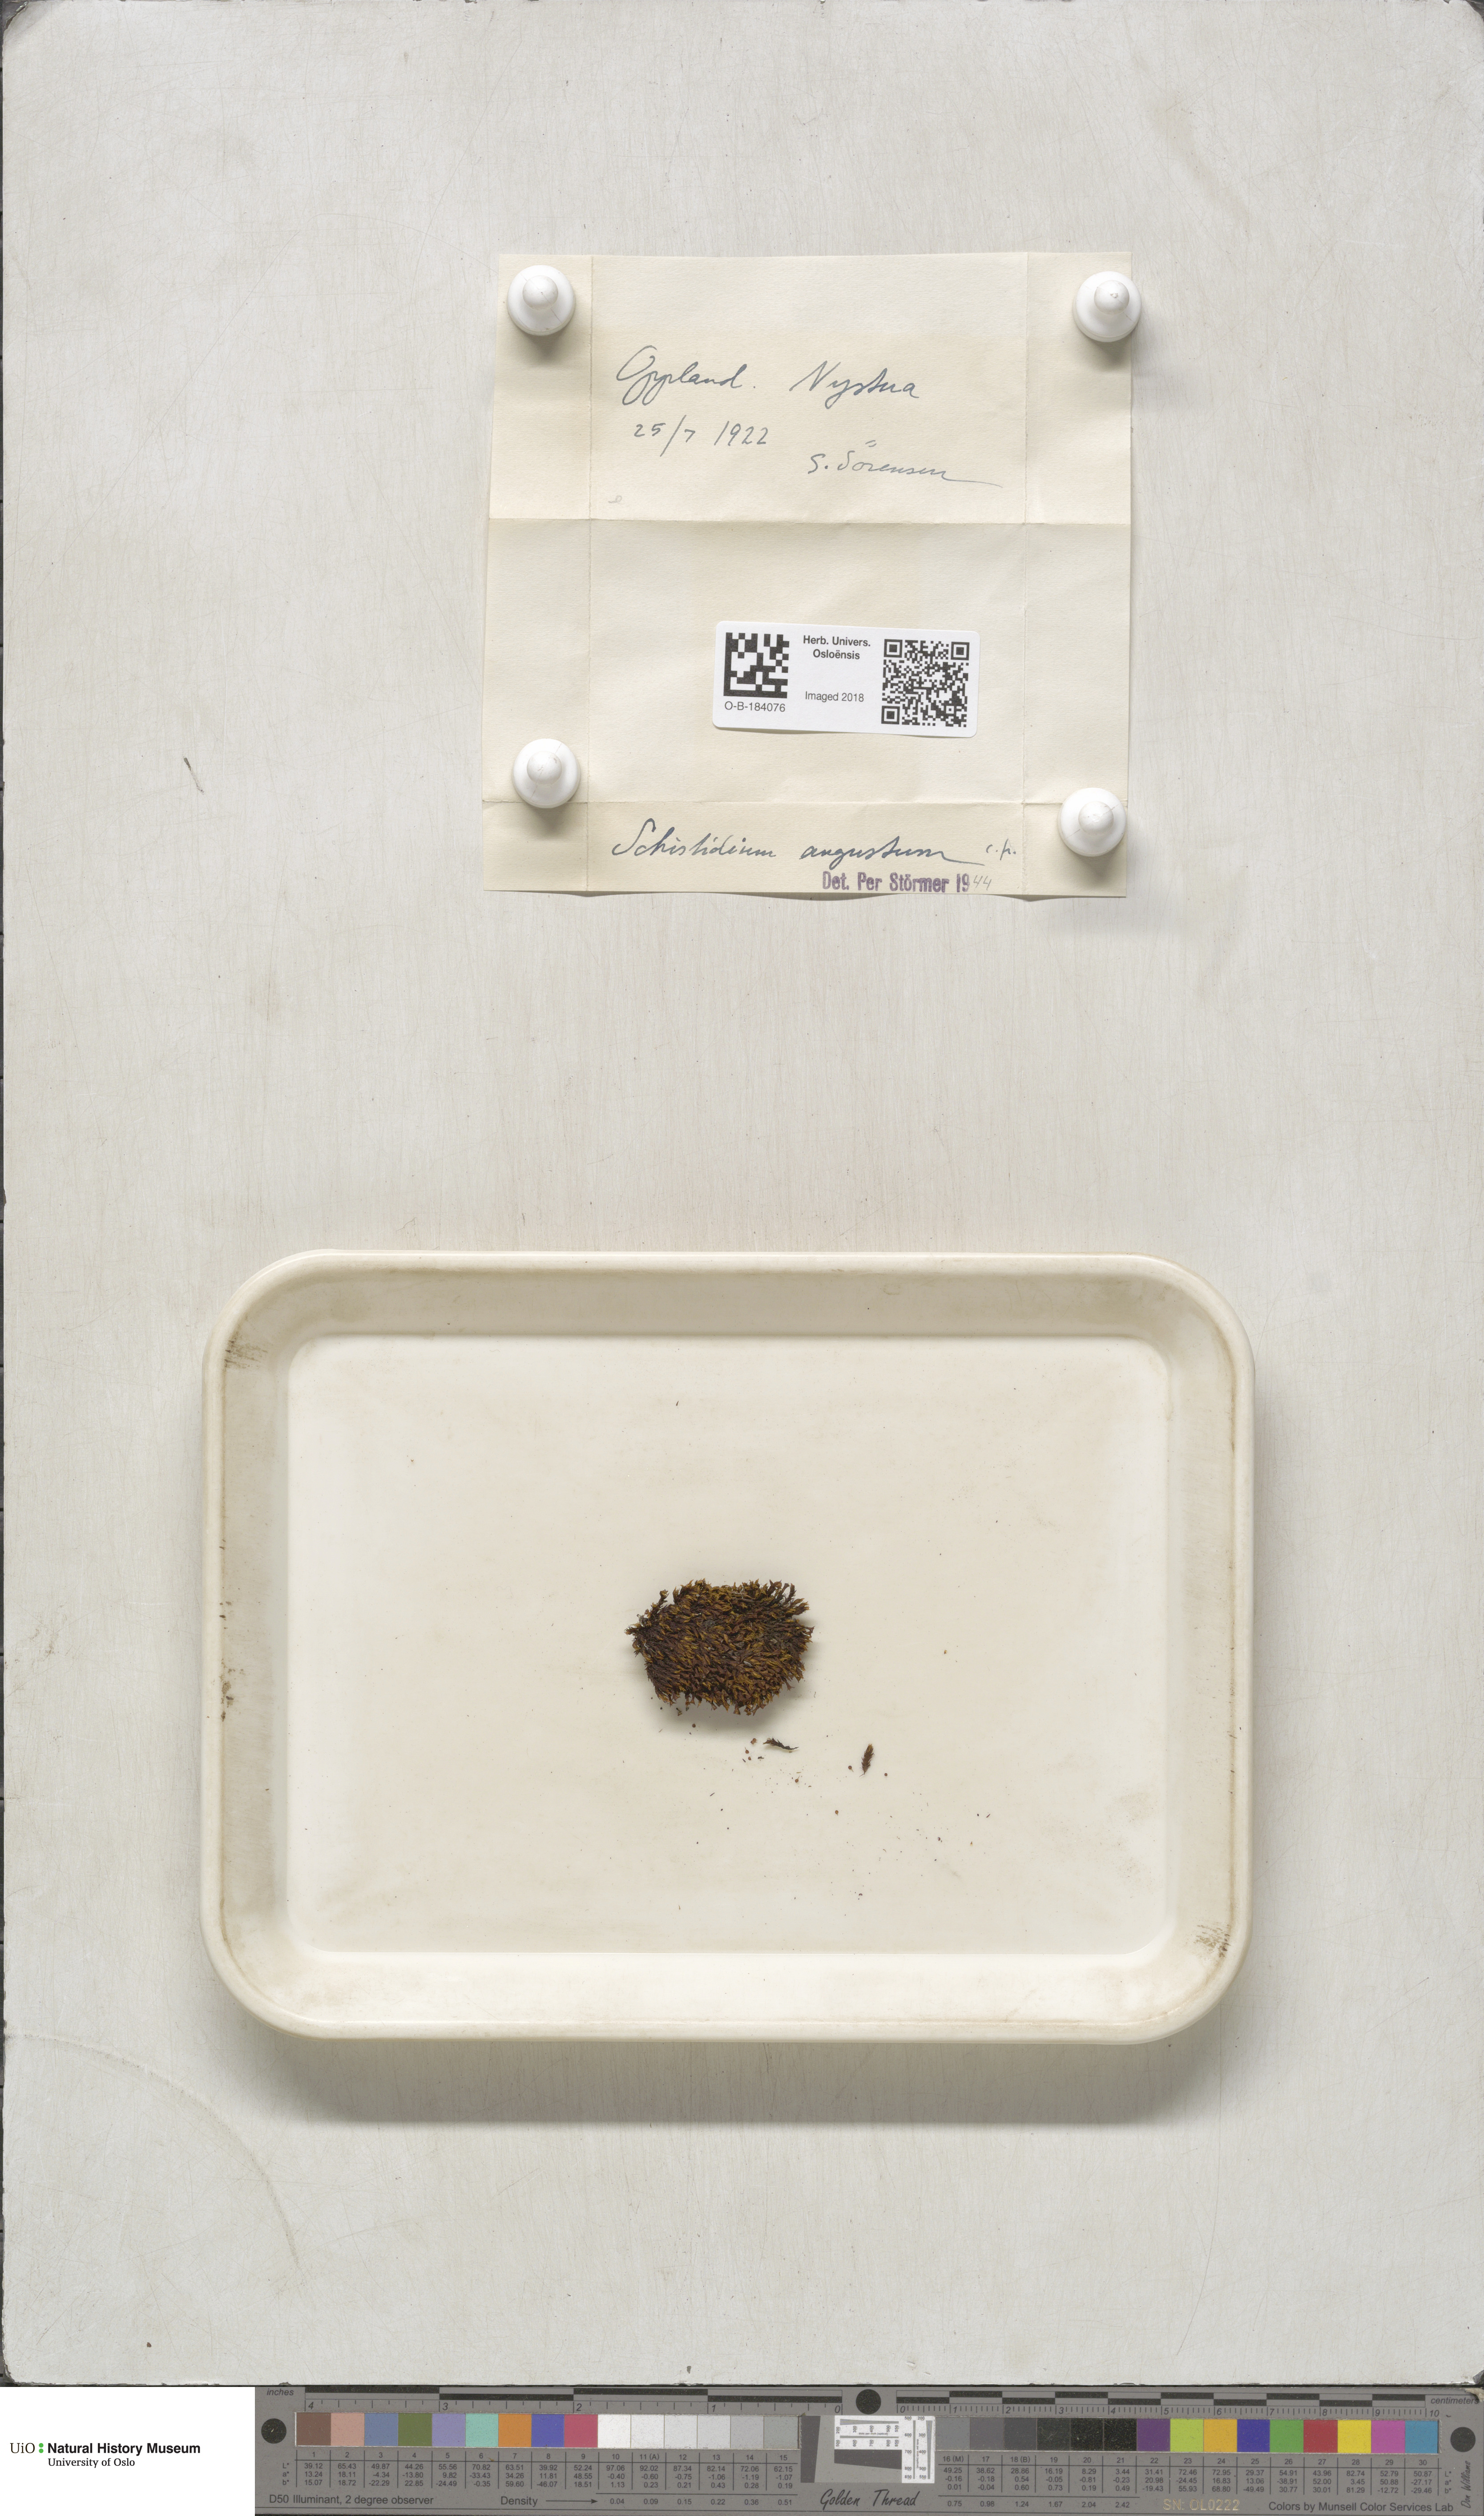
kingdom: Plantae
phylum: Bryophyta
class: Bryopsida
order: Grimmiales
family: Grimmiaceae
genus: Schistidium
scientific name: Schistidium agassizii
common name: Agassiz's bloom moss
